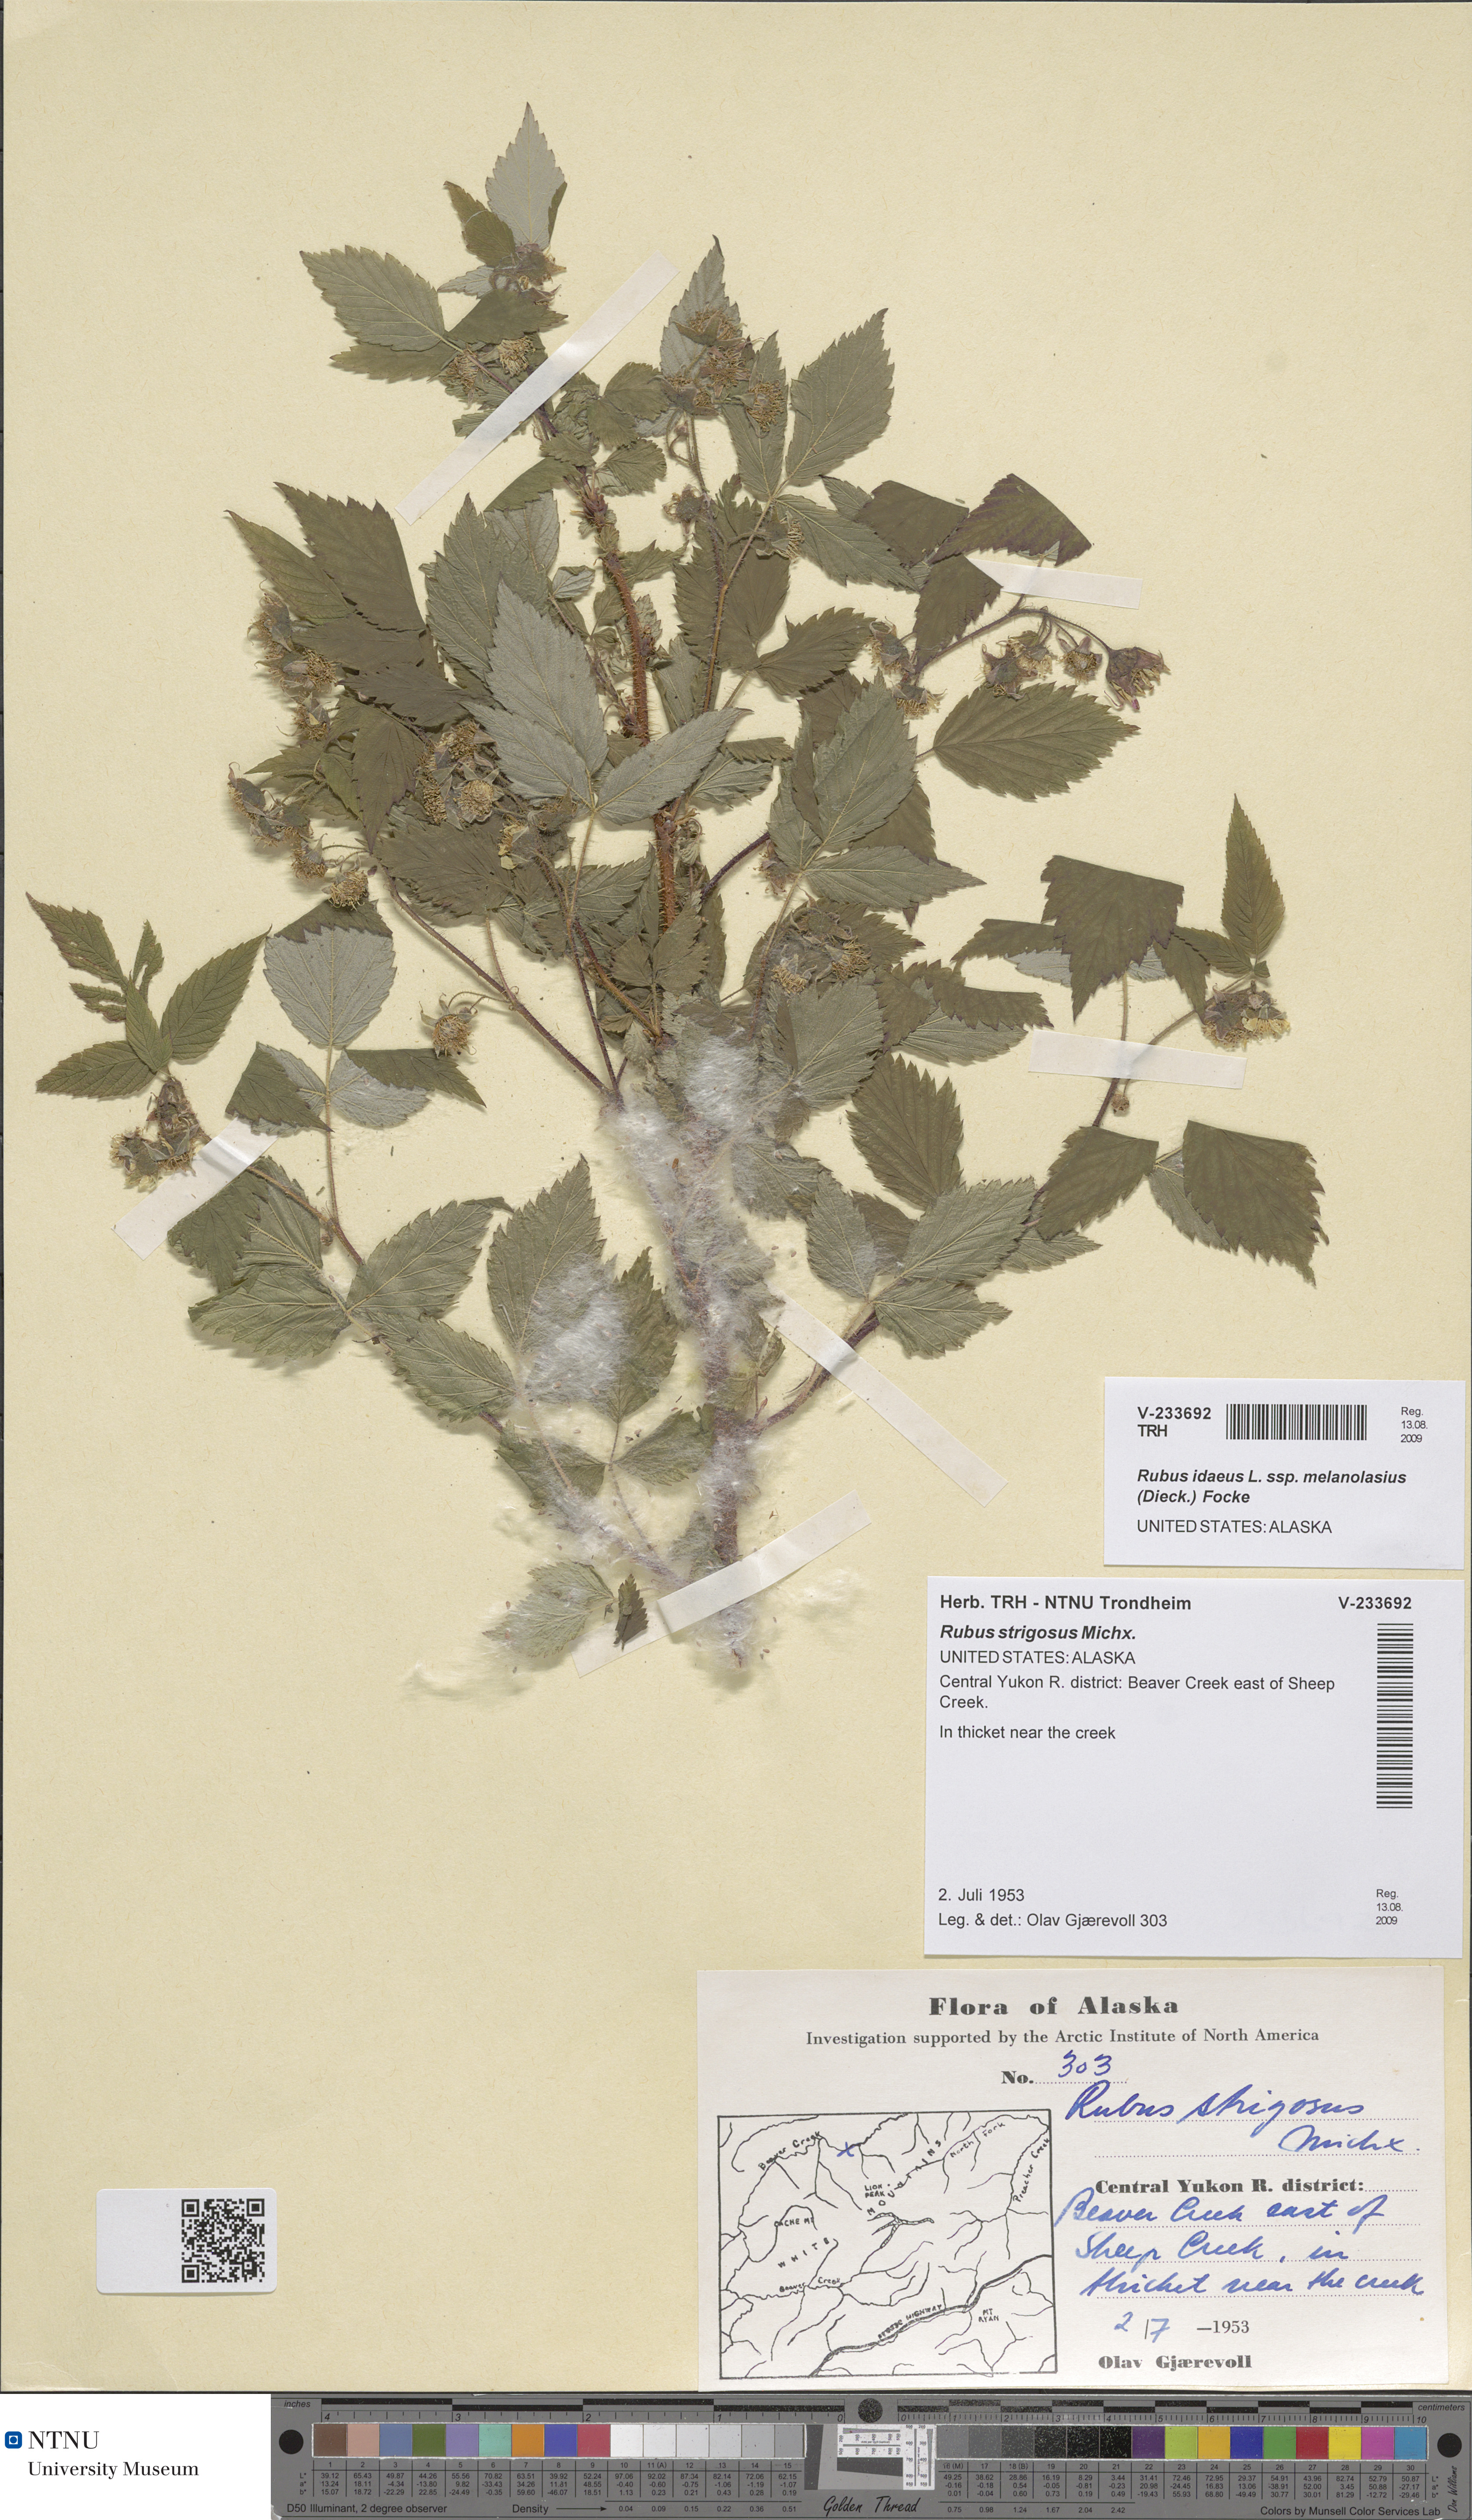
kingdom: Plantae
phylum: Tracheophyta
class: Magnoliopsida
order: Rosales
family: Rosaceae
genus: Rubus
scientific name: Rubus idaeus
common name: Raspberry
